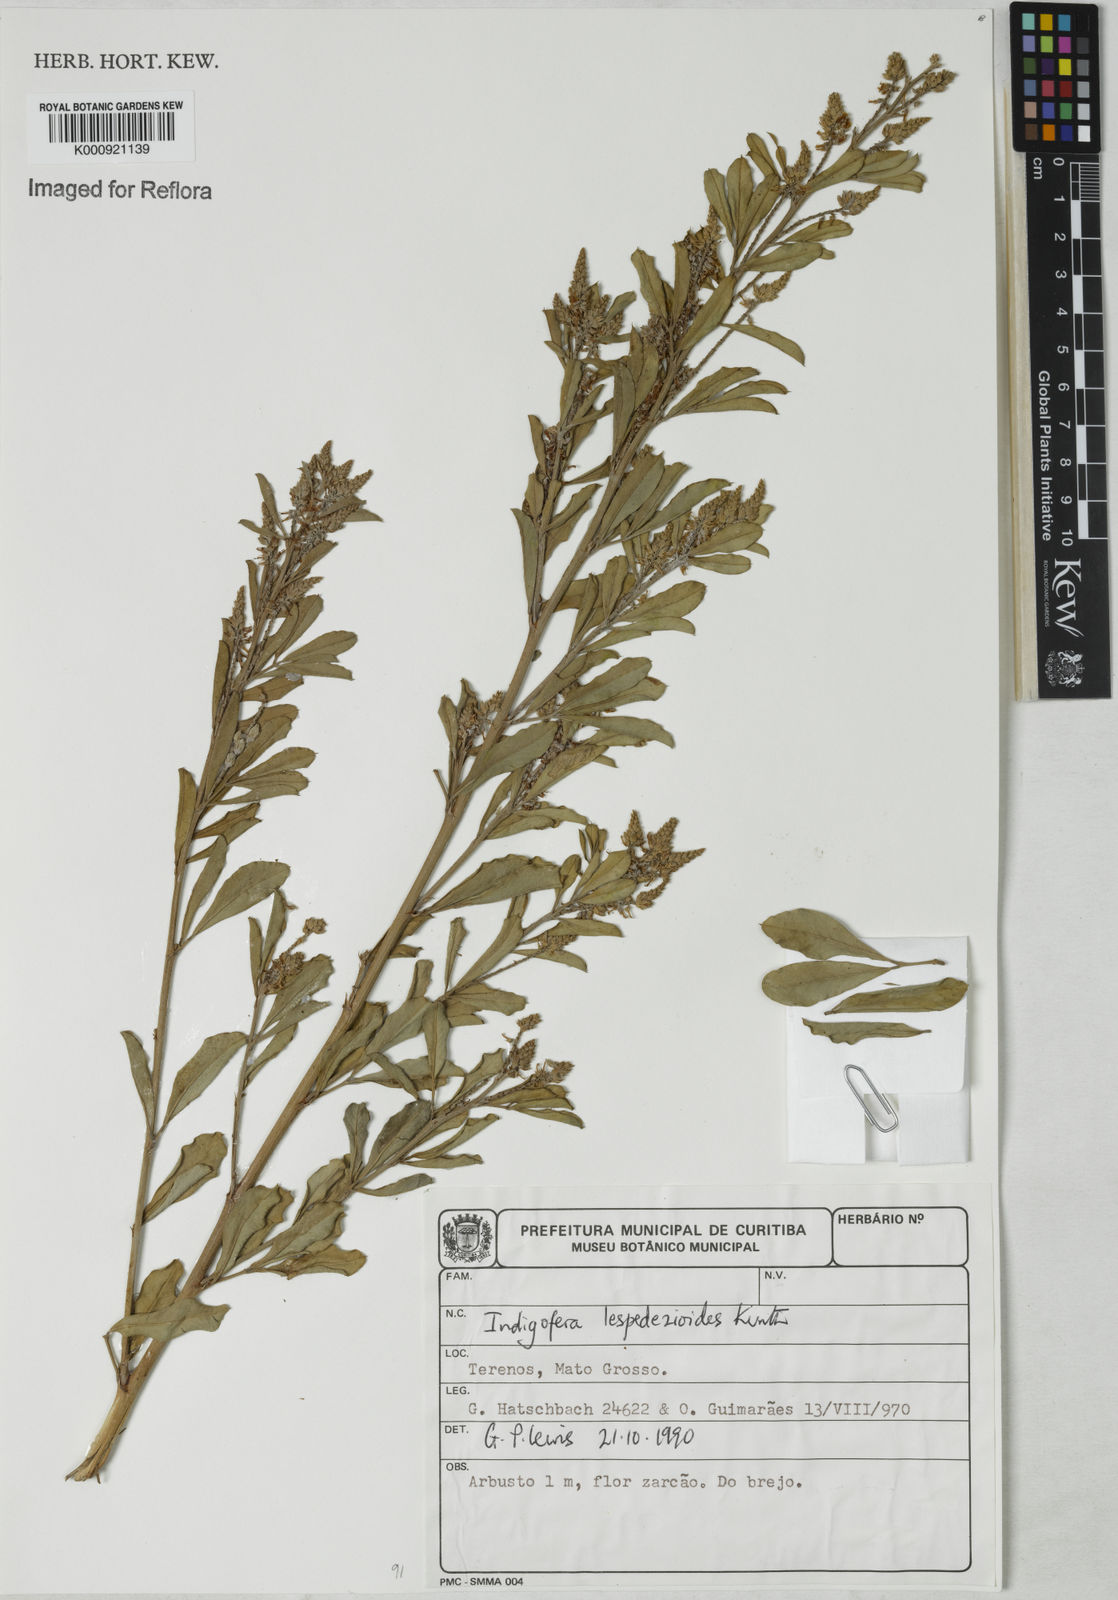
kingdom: Plantae
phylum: Tracheophyta
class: Magnoliopsida
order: Fabales
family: Fabaceae
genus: Indigofera
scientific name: Indigofera lespedezioides
